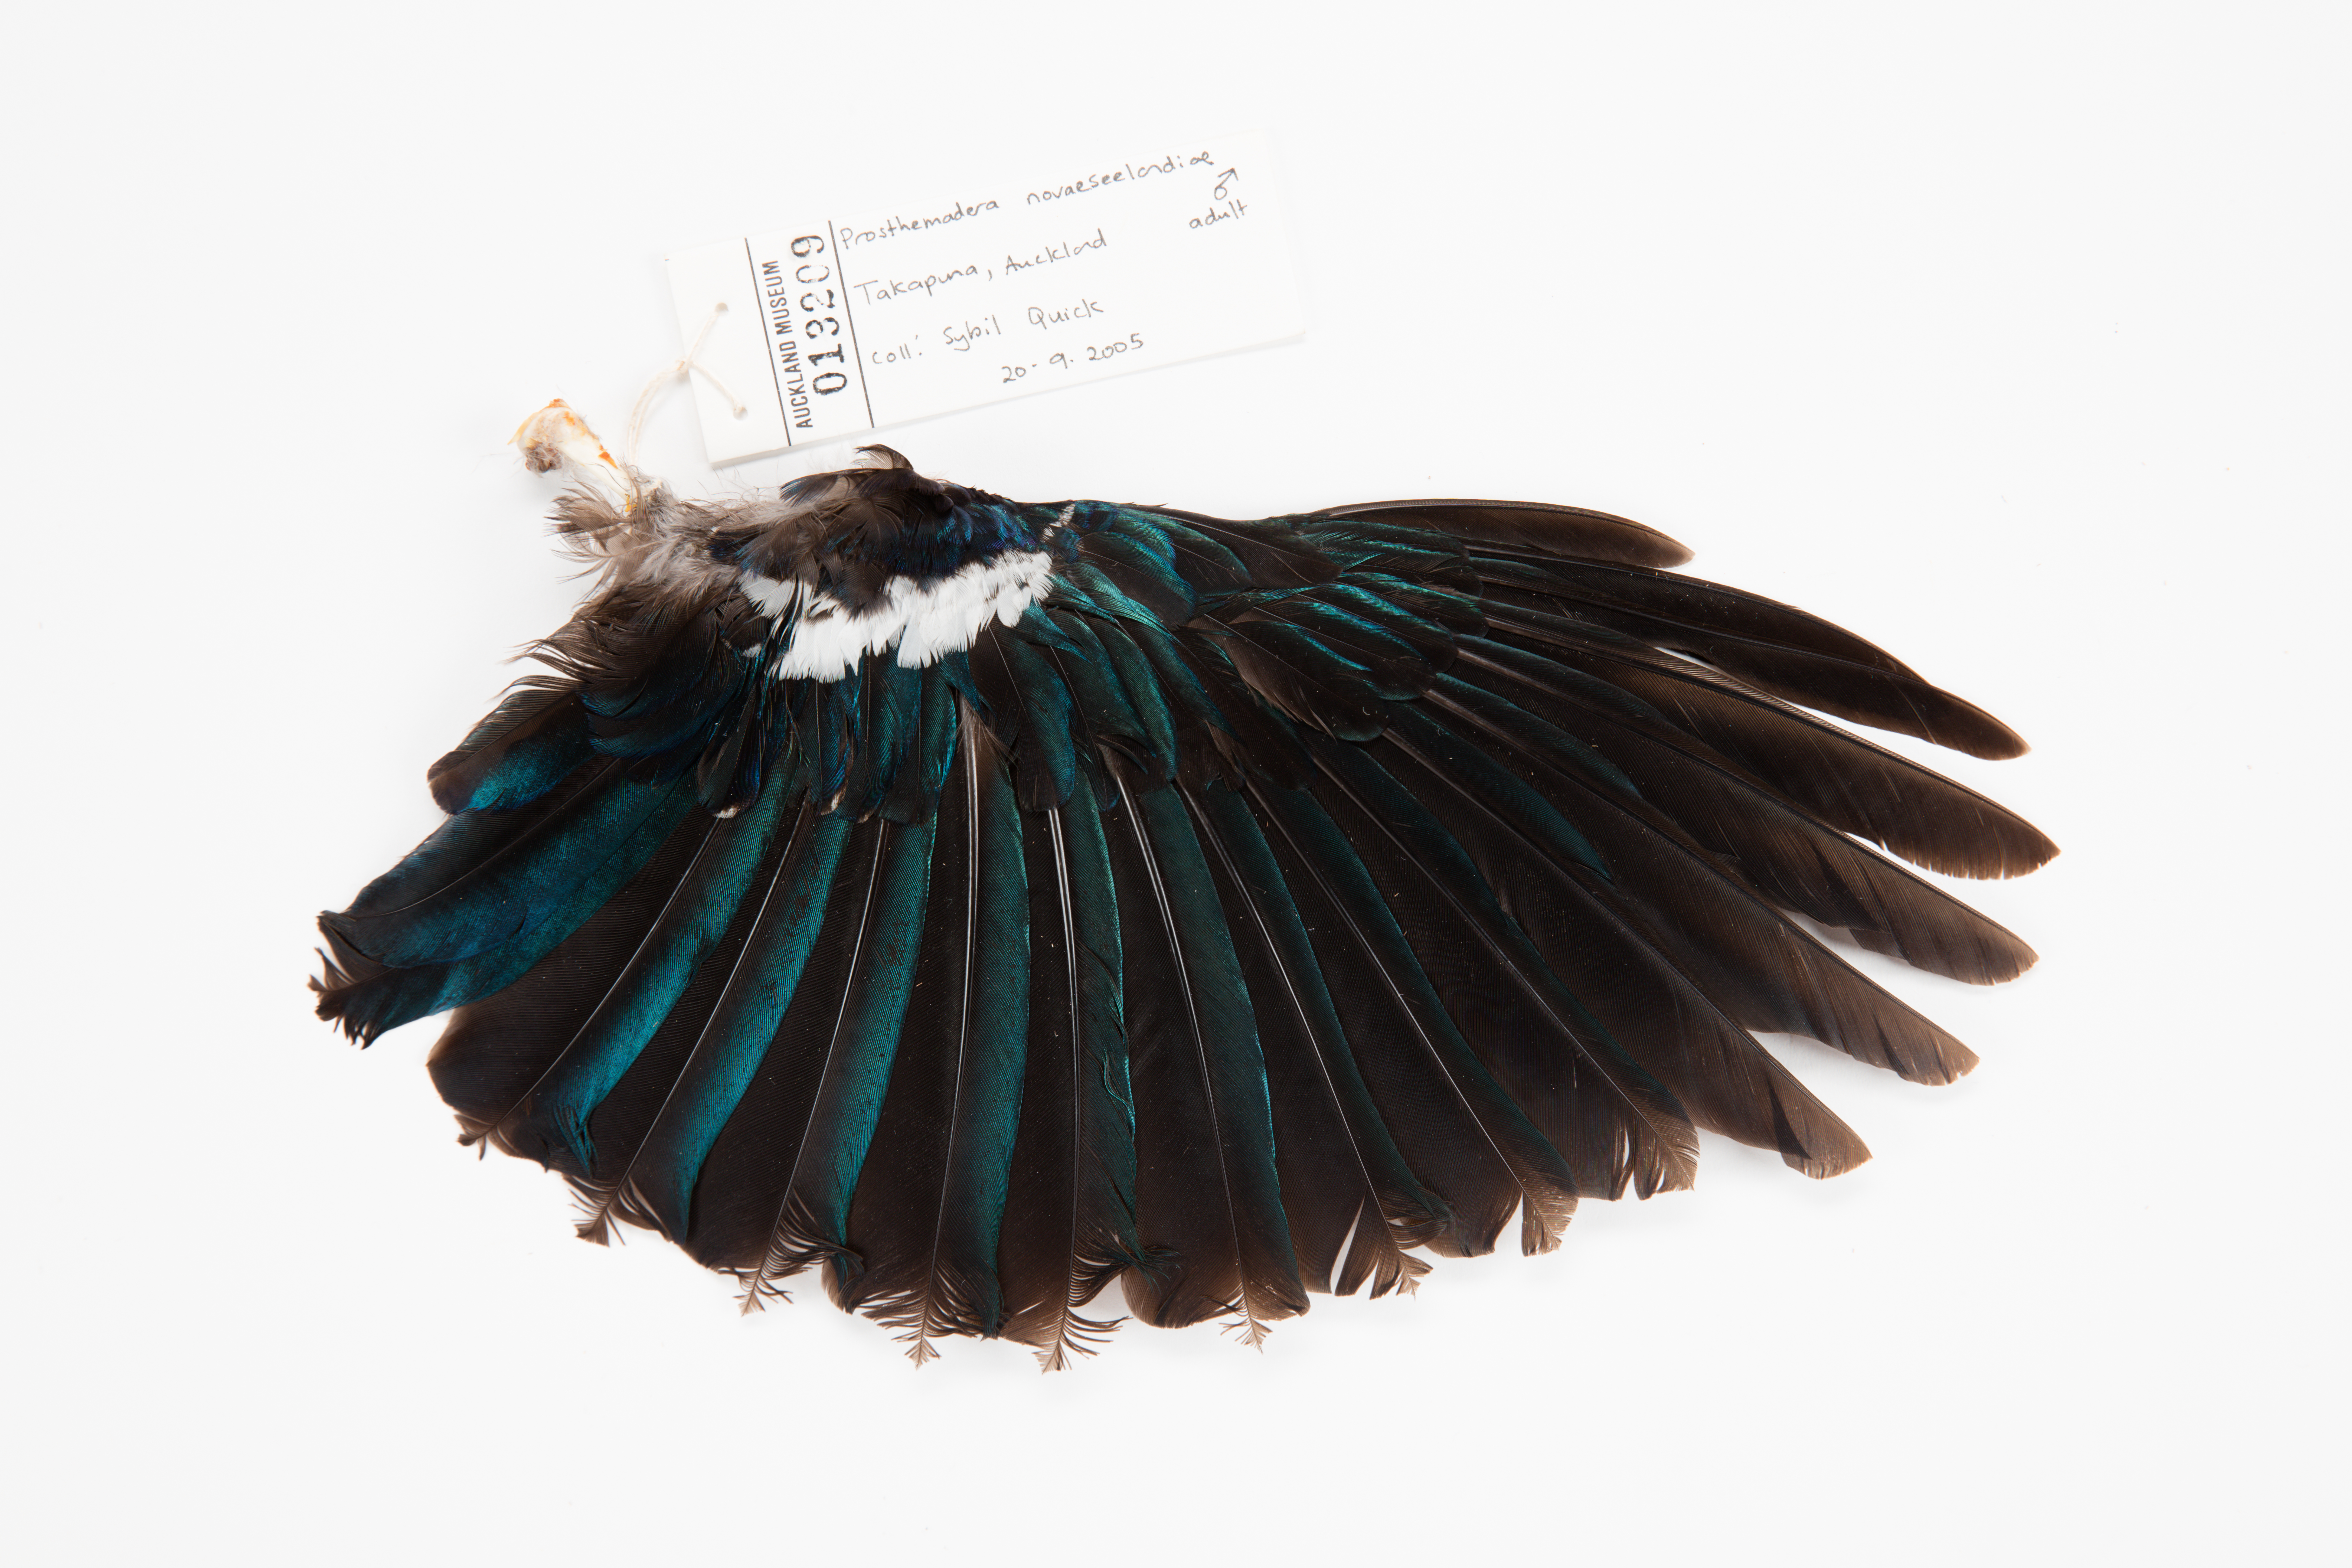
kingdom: Animalia
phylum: Chordata
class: Aves
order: Passeriformes
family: Meliphagidae
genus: Prosthemadera
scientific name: Prosthemadera novaeseelandiae
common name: Tui
